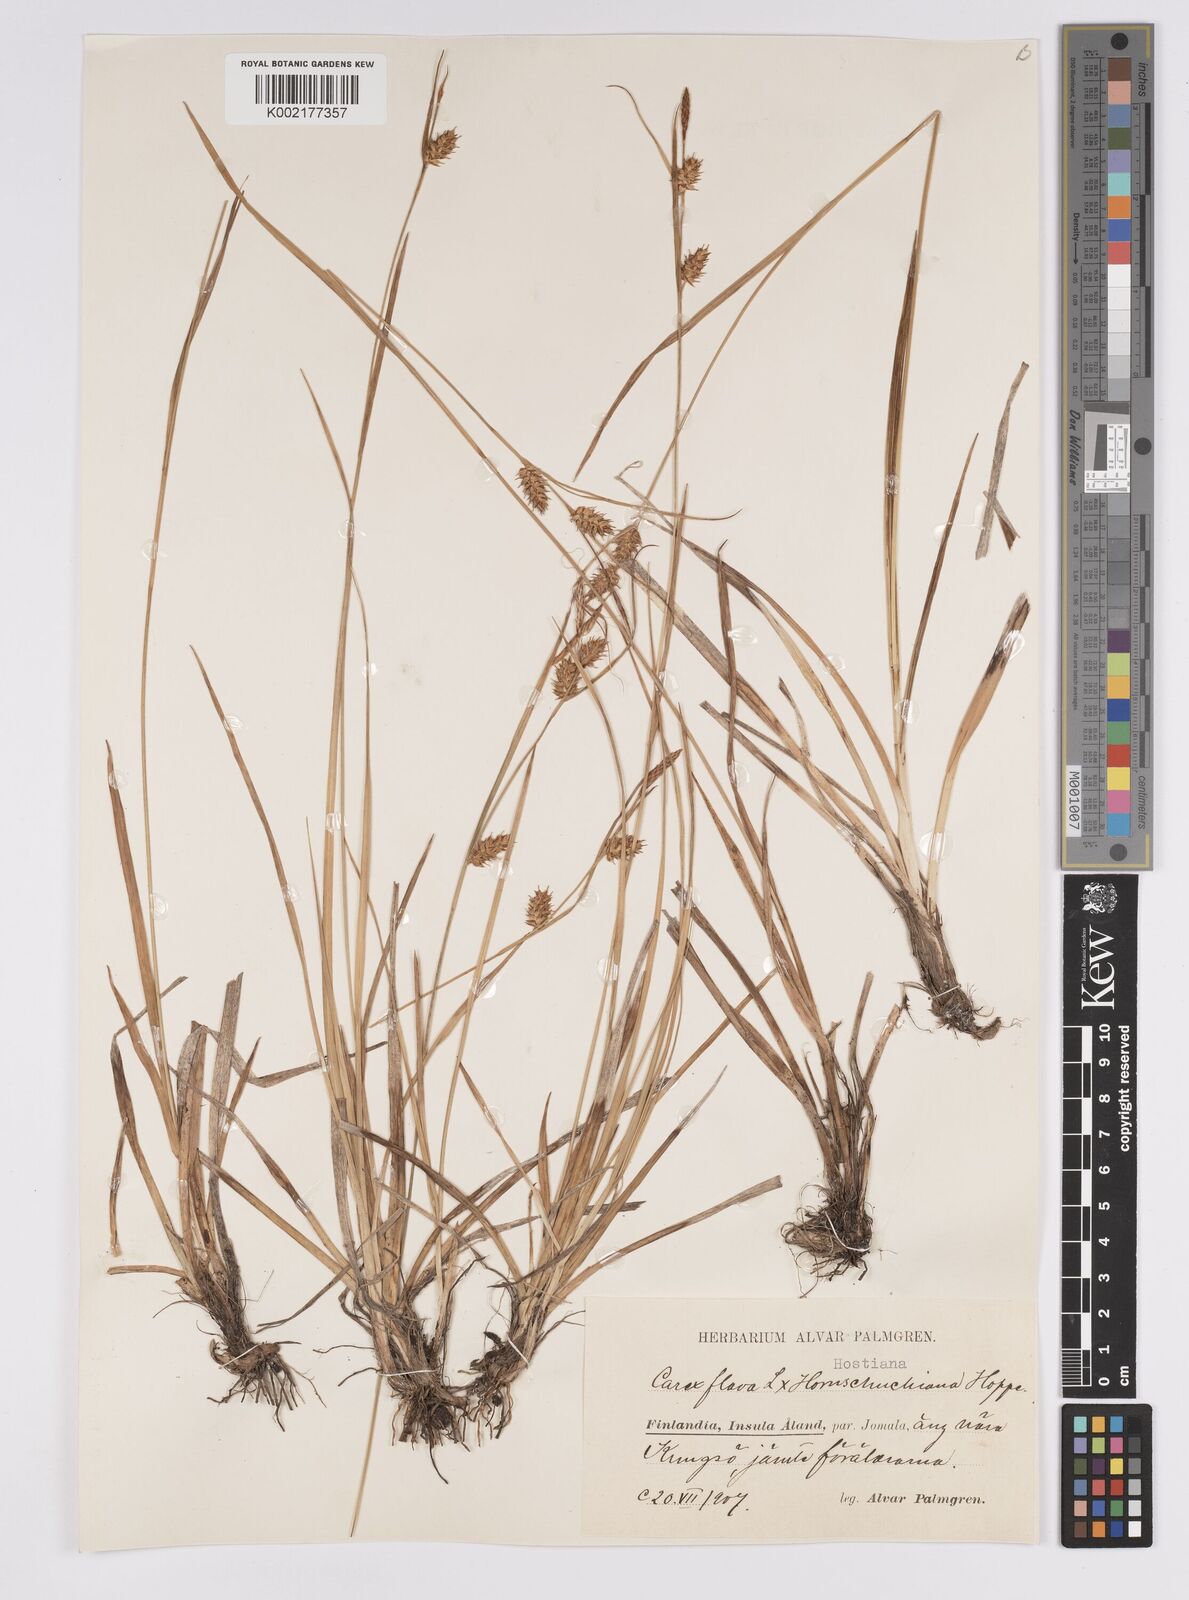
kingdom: Plantae
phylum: Tracheophyta
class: Liliopsida
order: Poales
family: Cyperaceae
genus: Carex
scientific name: Carex hostiana
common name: Tawny sedge
